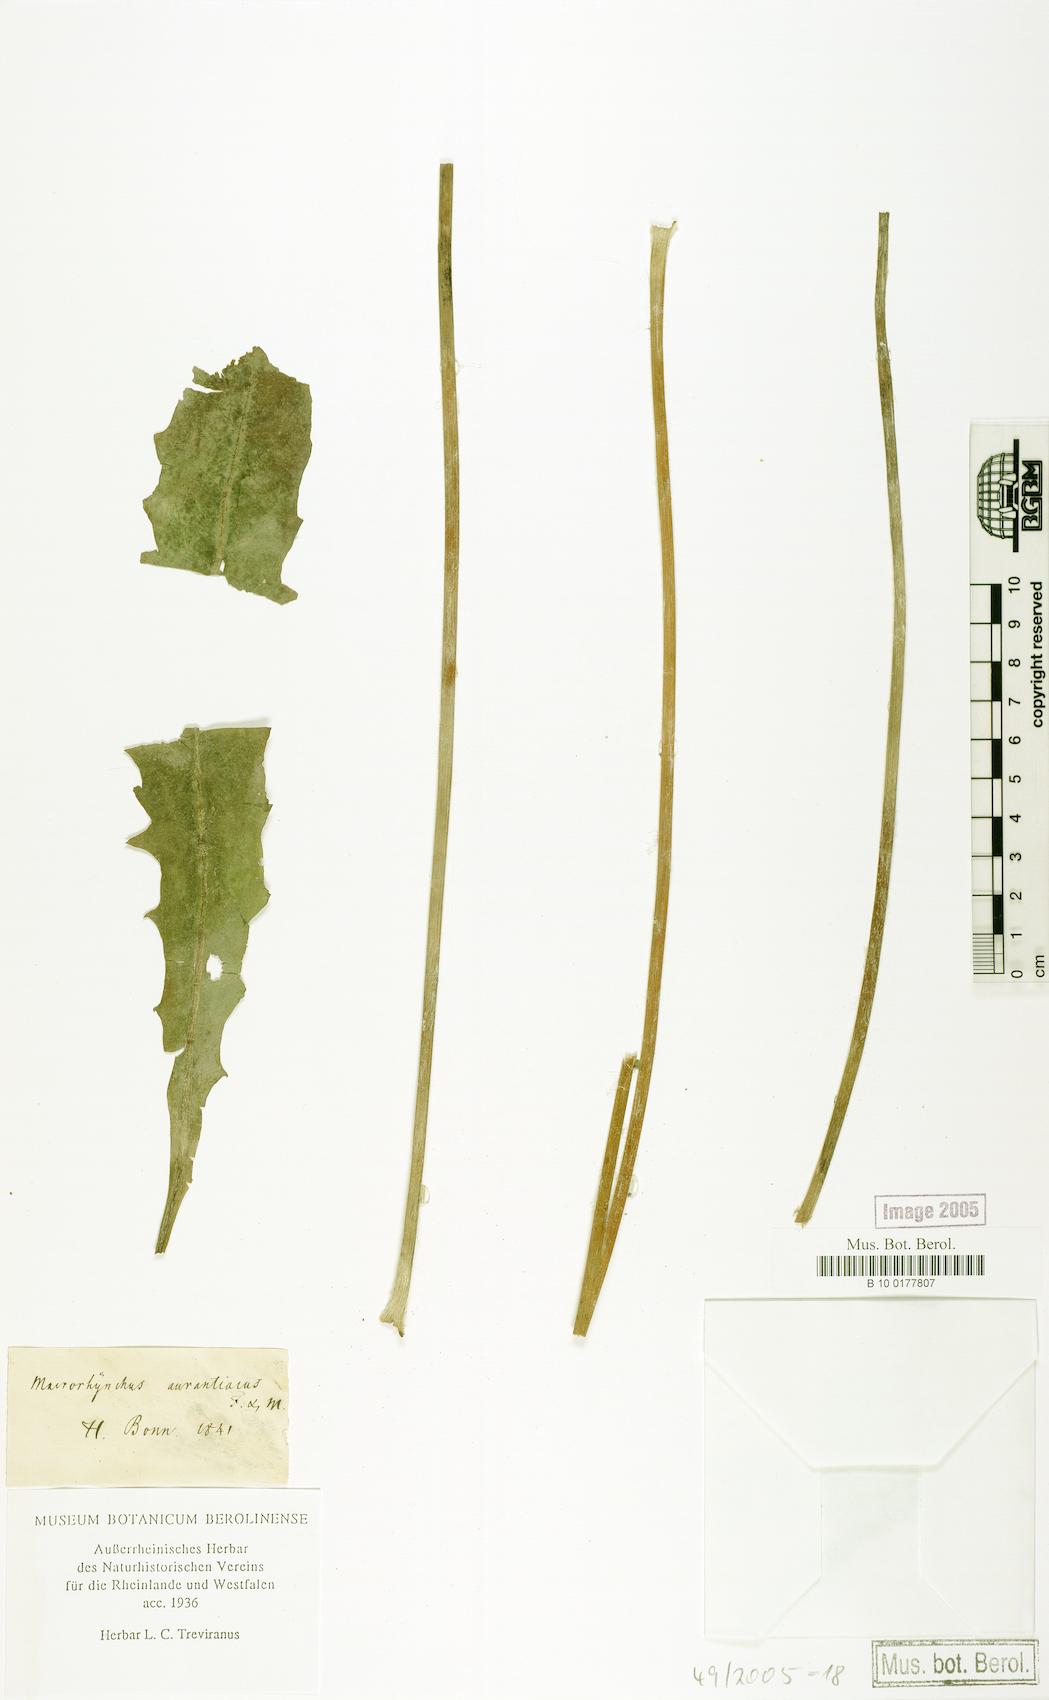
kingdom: Plantae
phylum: Tracheophyta
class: Magnoliopsida
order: Asterales
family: Asteraceae
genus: Agoseris
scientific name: Agoseris aurantiaca
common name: Mountain agoseris
